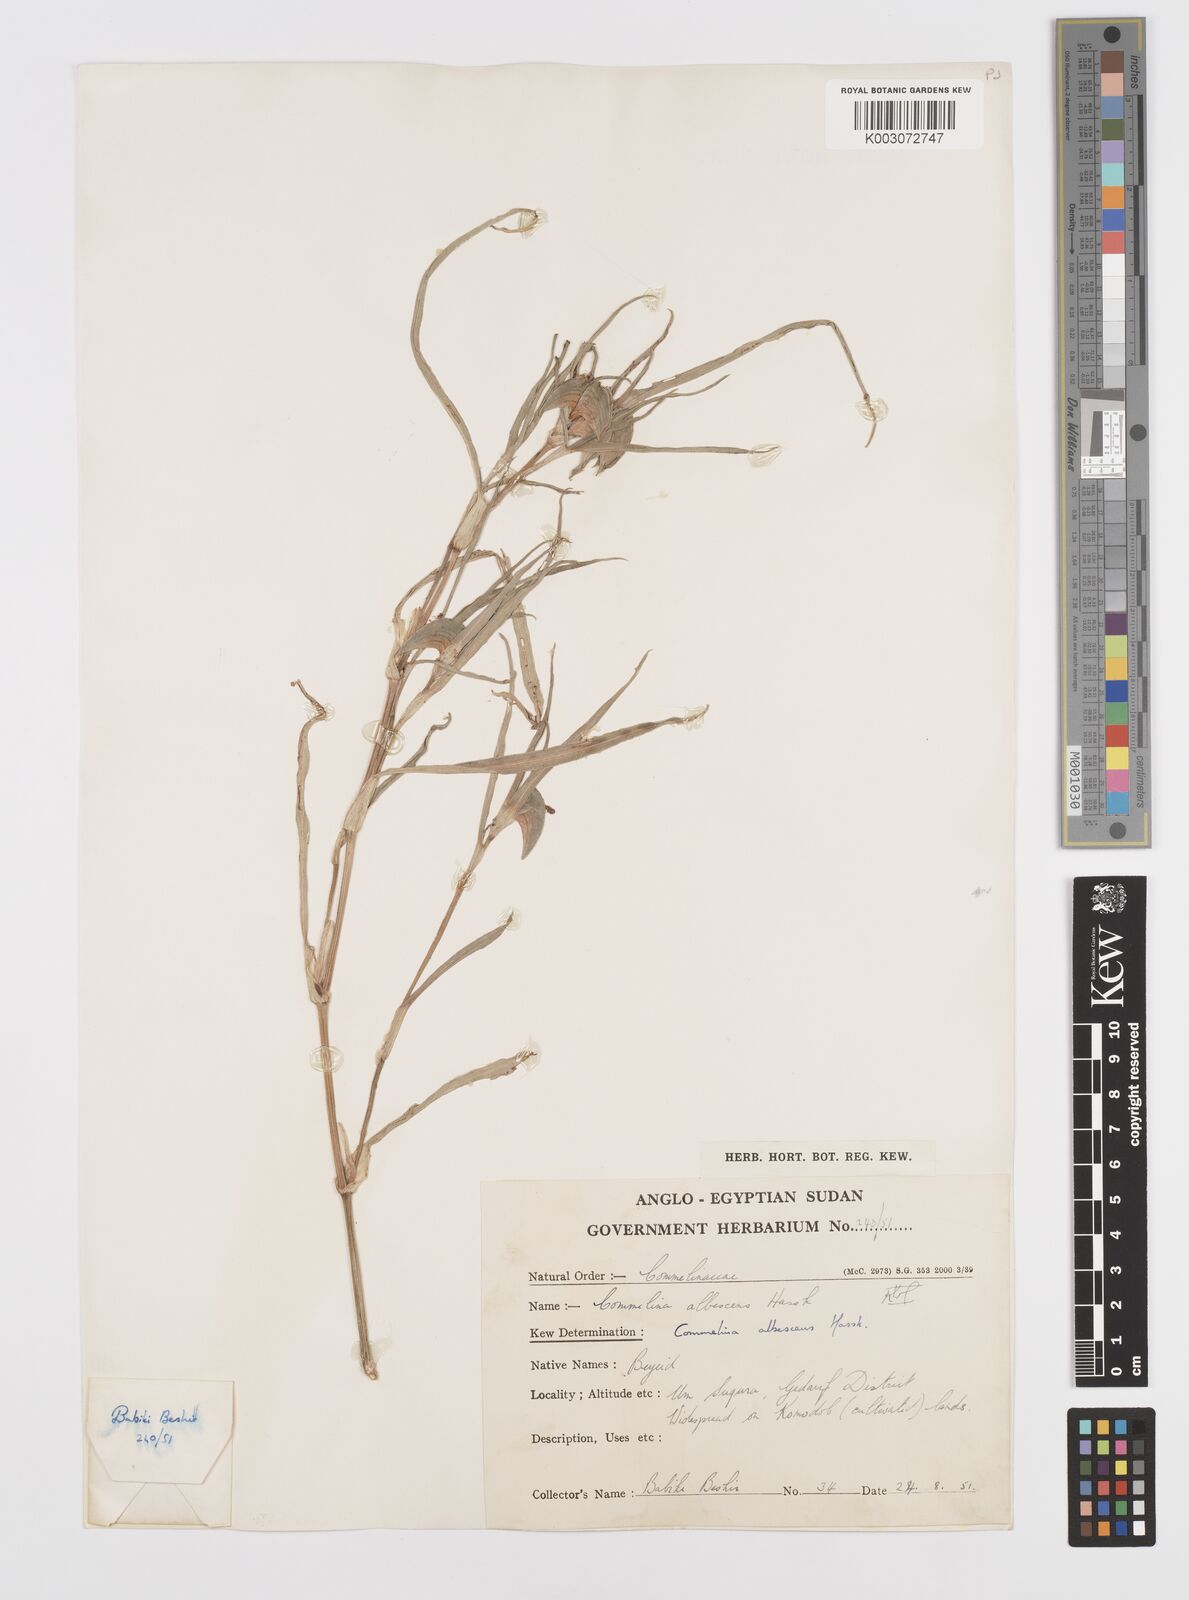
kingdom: Plantae
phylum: Tracheophyta
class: Liliopsida
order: Commelinales
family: Commelinaceae
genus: Commelina
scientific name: Commelina albescens
